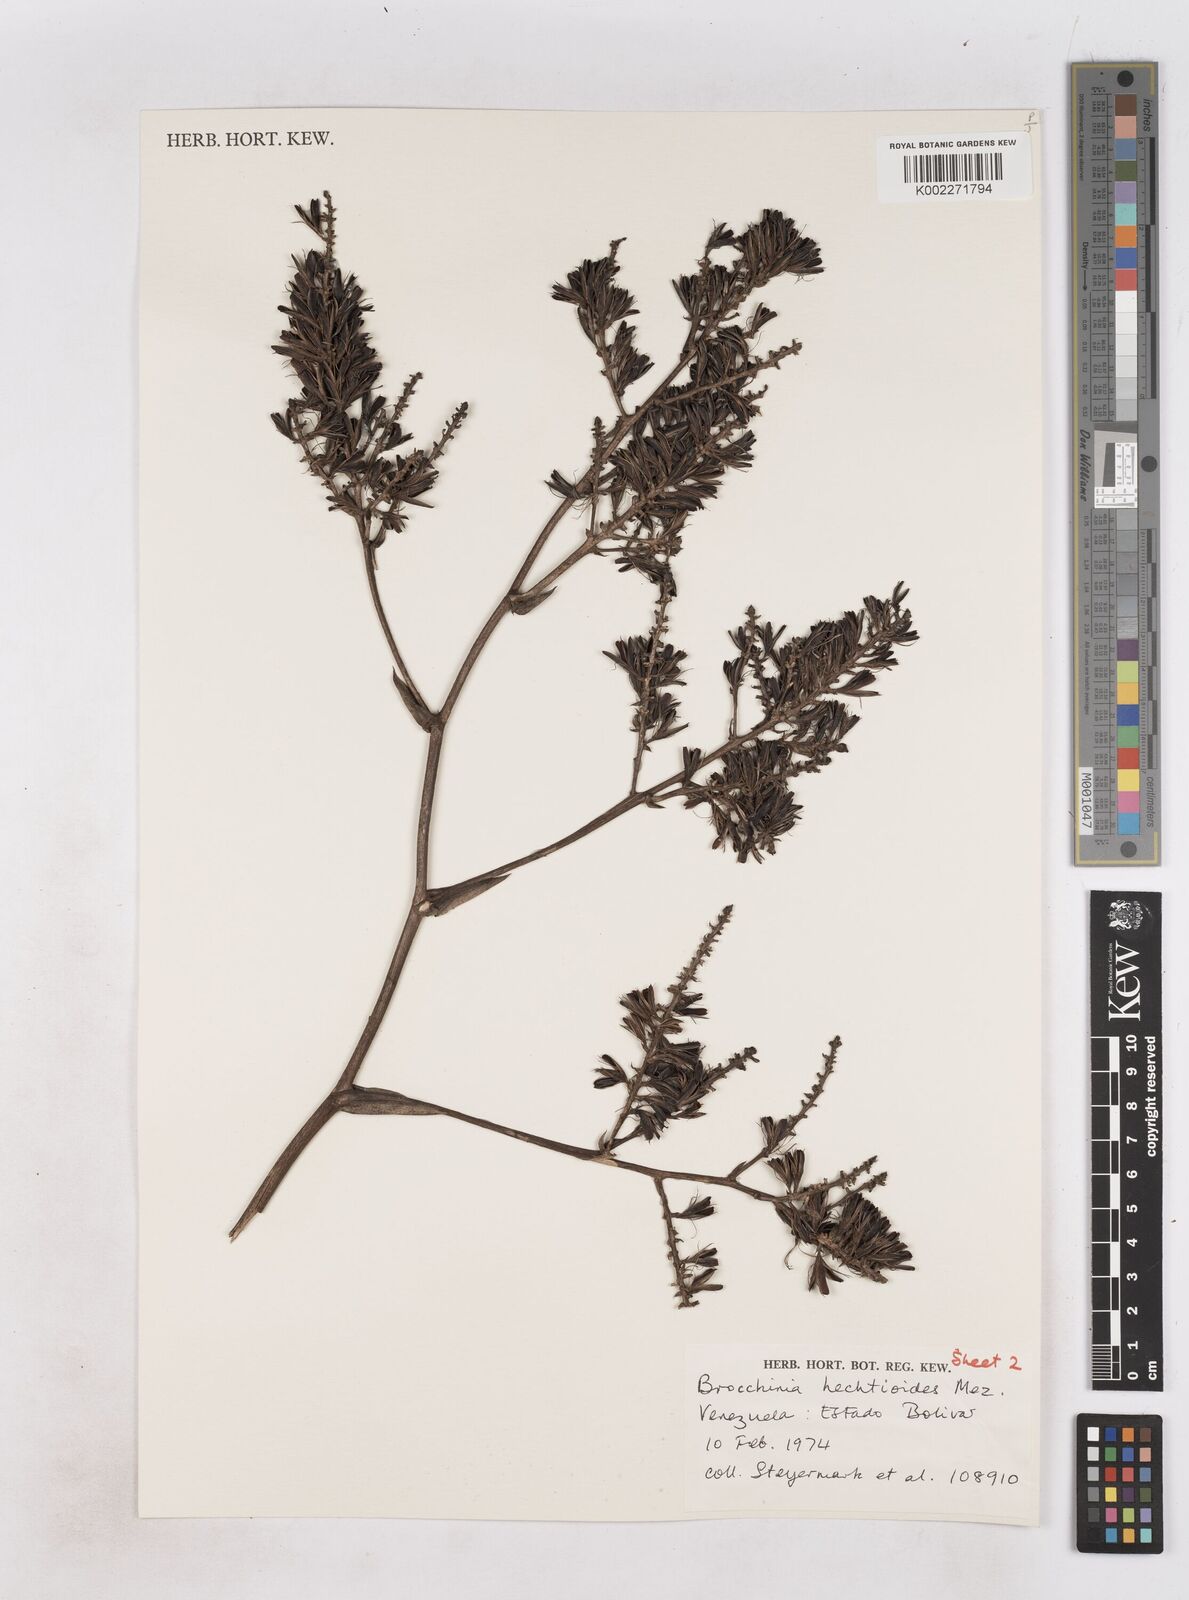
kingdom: Plantae
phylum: Tracheophyta
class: Liliopsida
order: Poales
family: Bromeliaceae
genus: Brocchinia
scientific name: Brocchinia hechtioides
